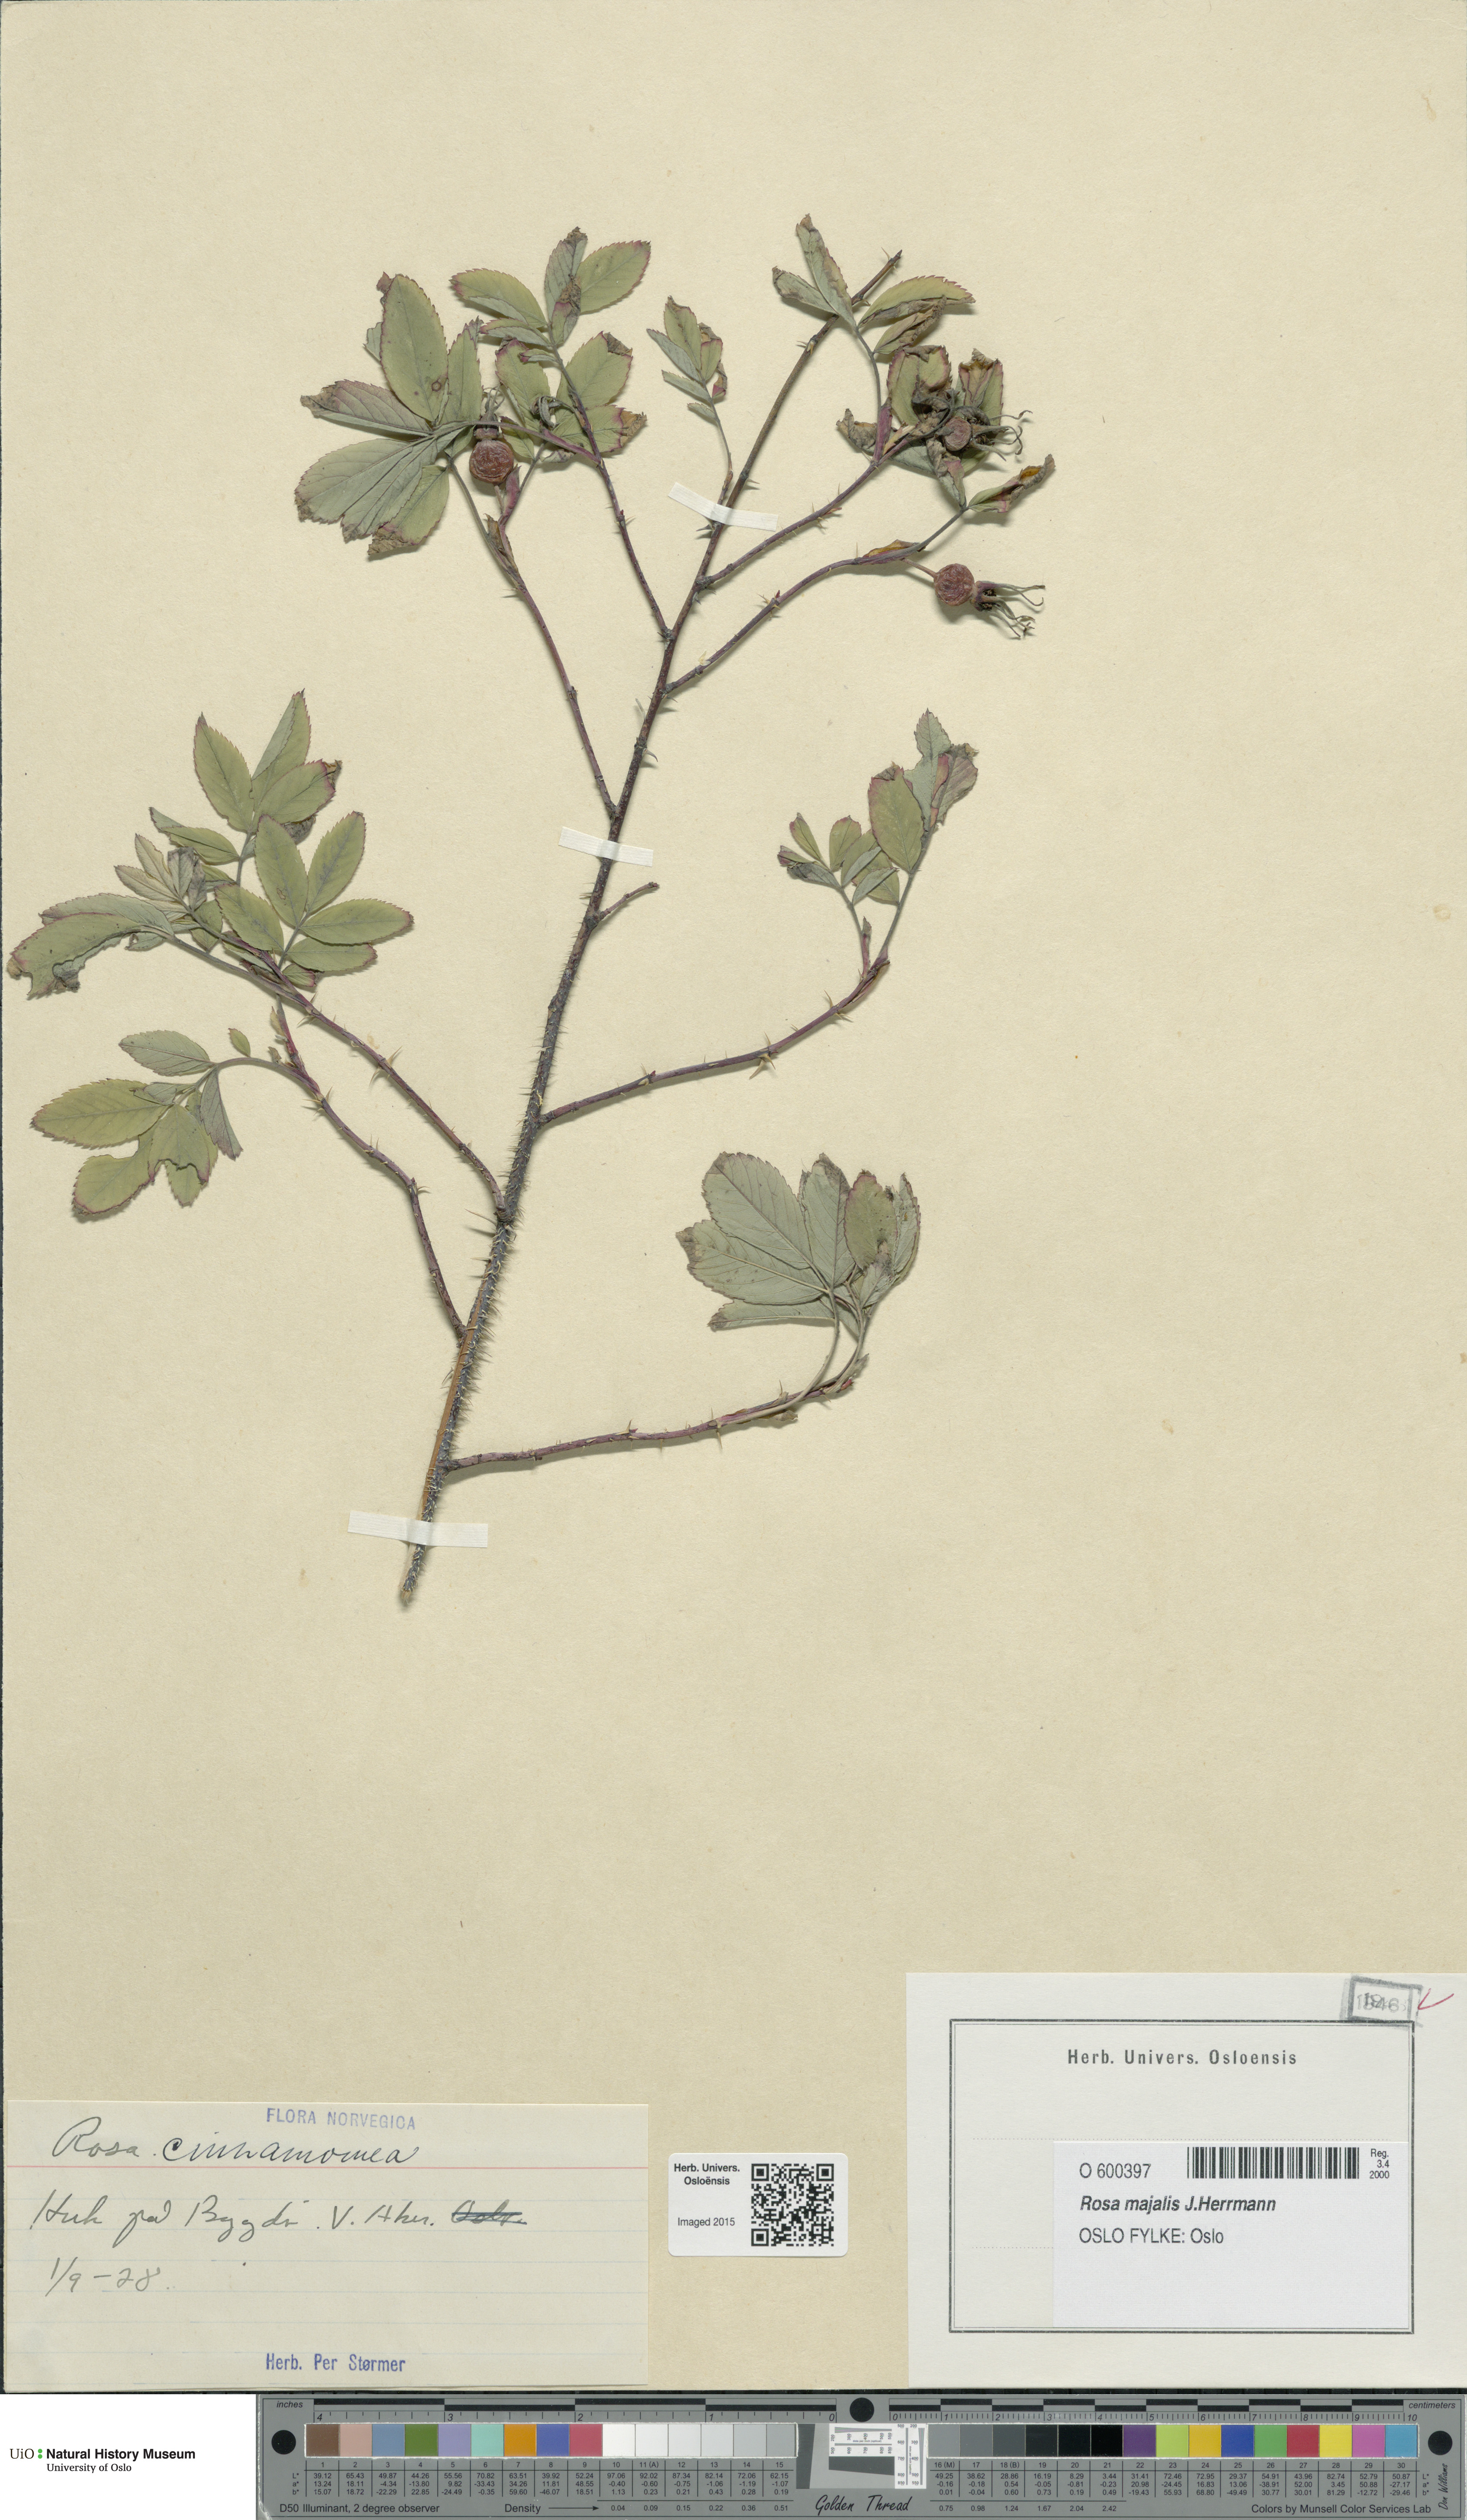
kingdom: Plantae
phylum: Tracheophyta
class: Magnoliopsida
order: Rosales
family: Rosaceae
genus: Rosa
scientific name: Rosa pendulina
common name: Alpine rose
